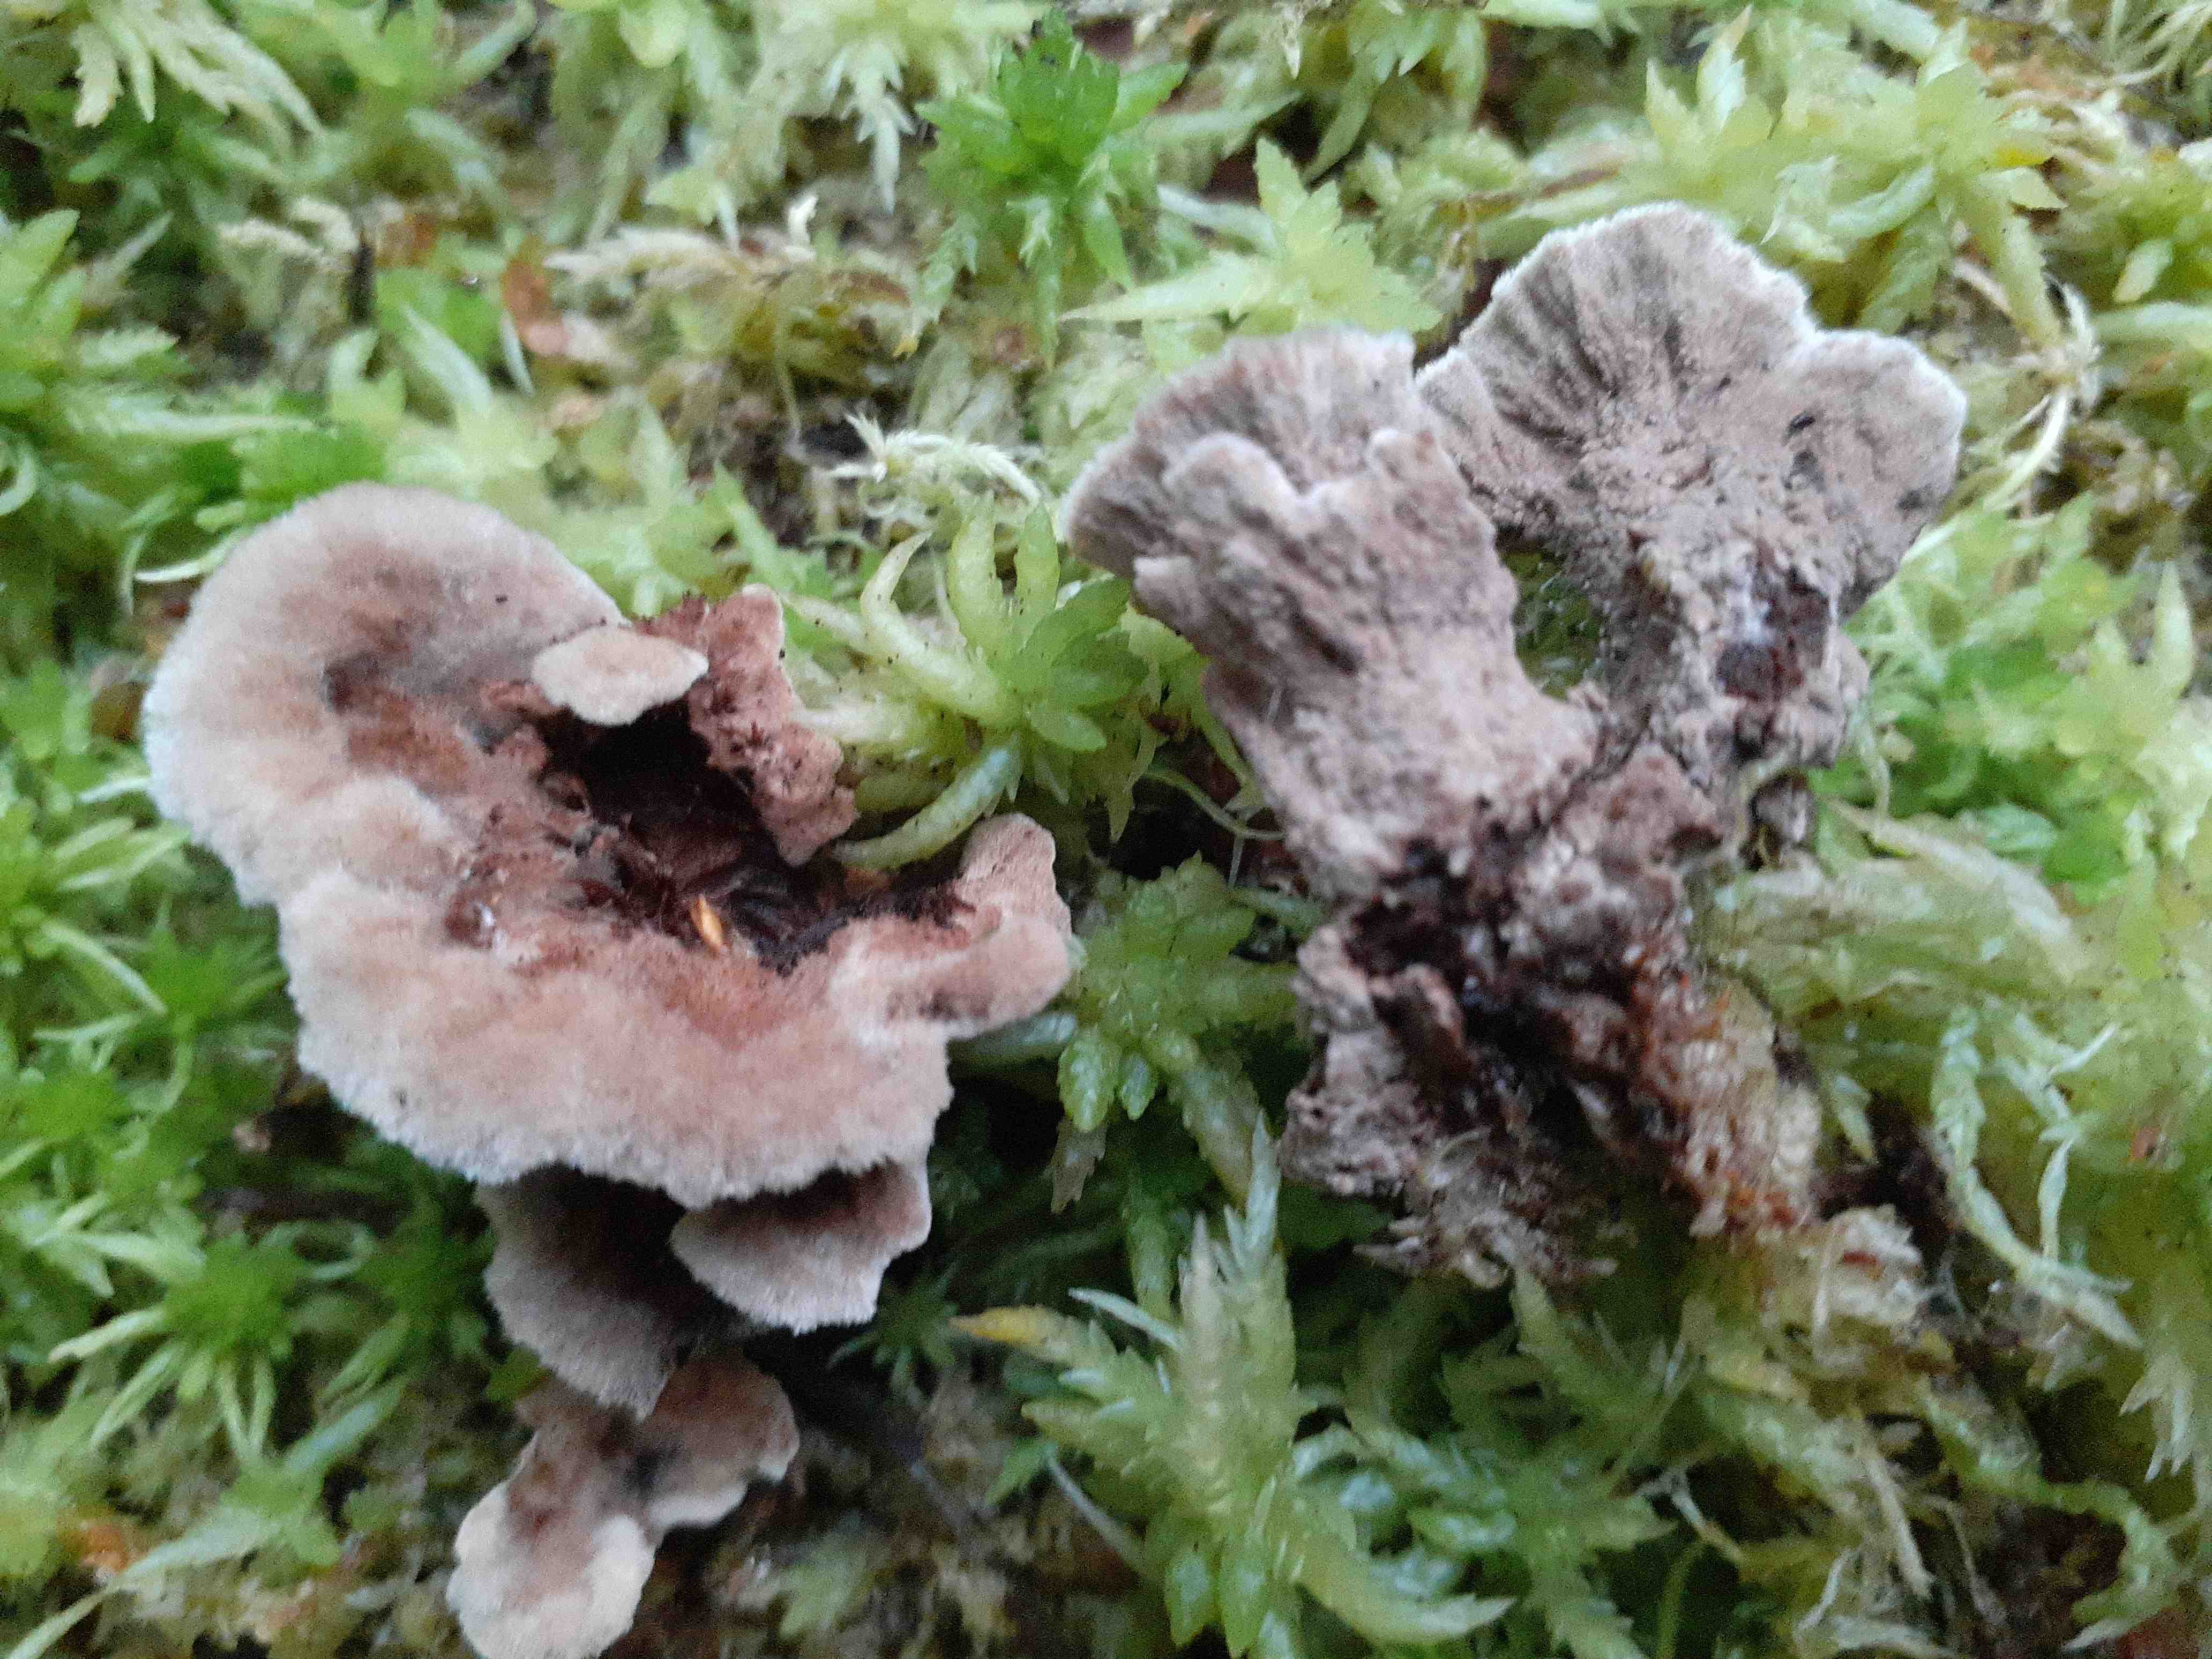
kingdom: Fungi
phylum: Basidiomycota
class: Agaricomycetes
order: Thelephorales
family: Thelephoraceae
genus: Thelephora
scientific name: Thelephora terrestris
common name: fliget frynsesvamp
